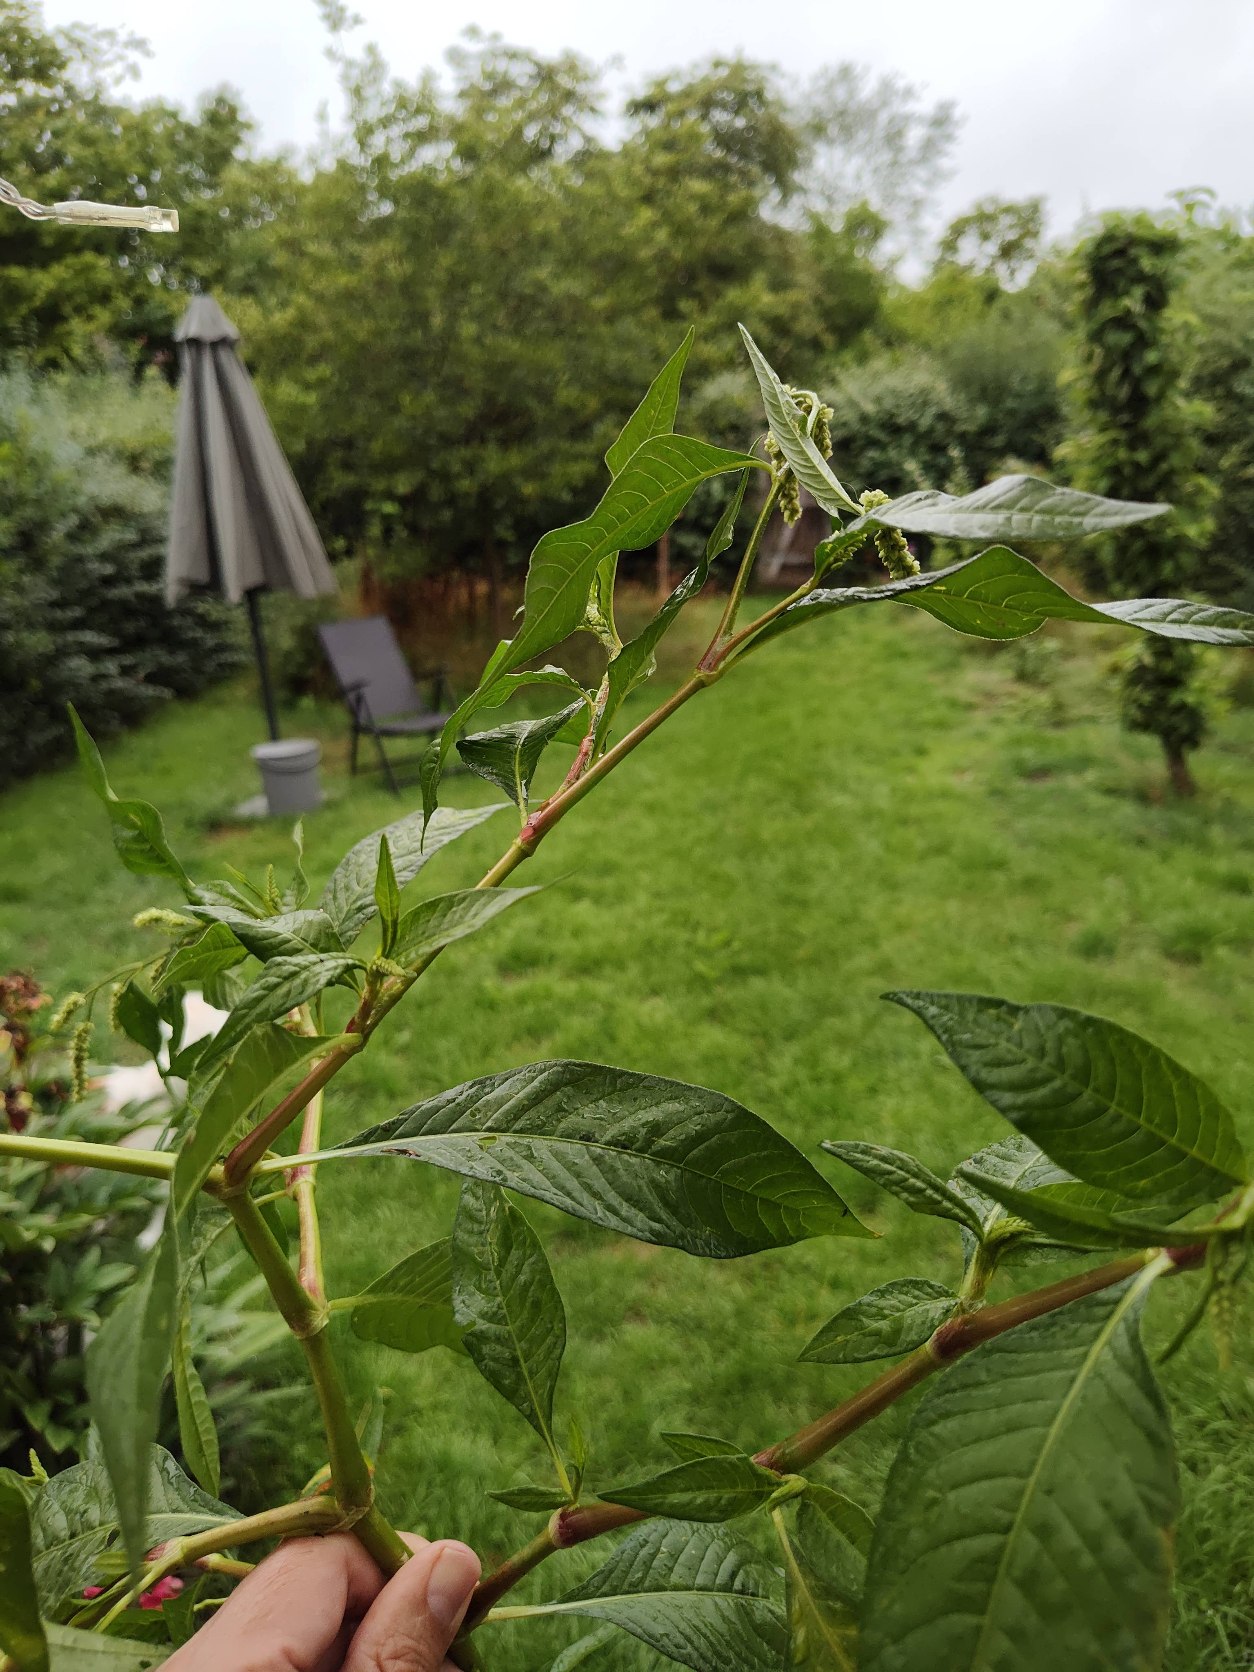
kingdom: Plantae
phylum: Tracheophyta
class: Magnoliopsida
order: Caryophyllales
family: Polygonaceae
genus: Persicaria
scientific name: Persicaria lapathifolia
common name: Knudet pileurt
